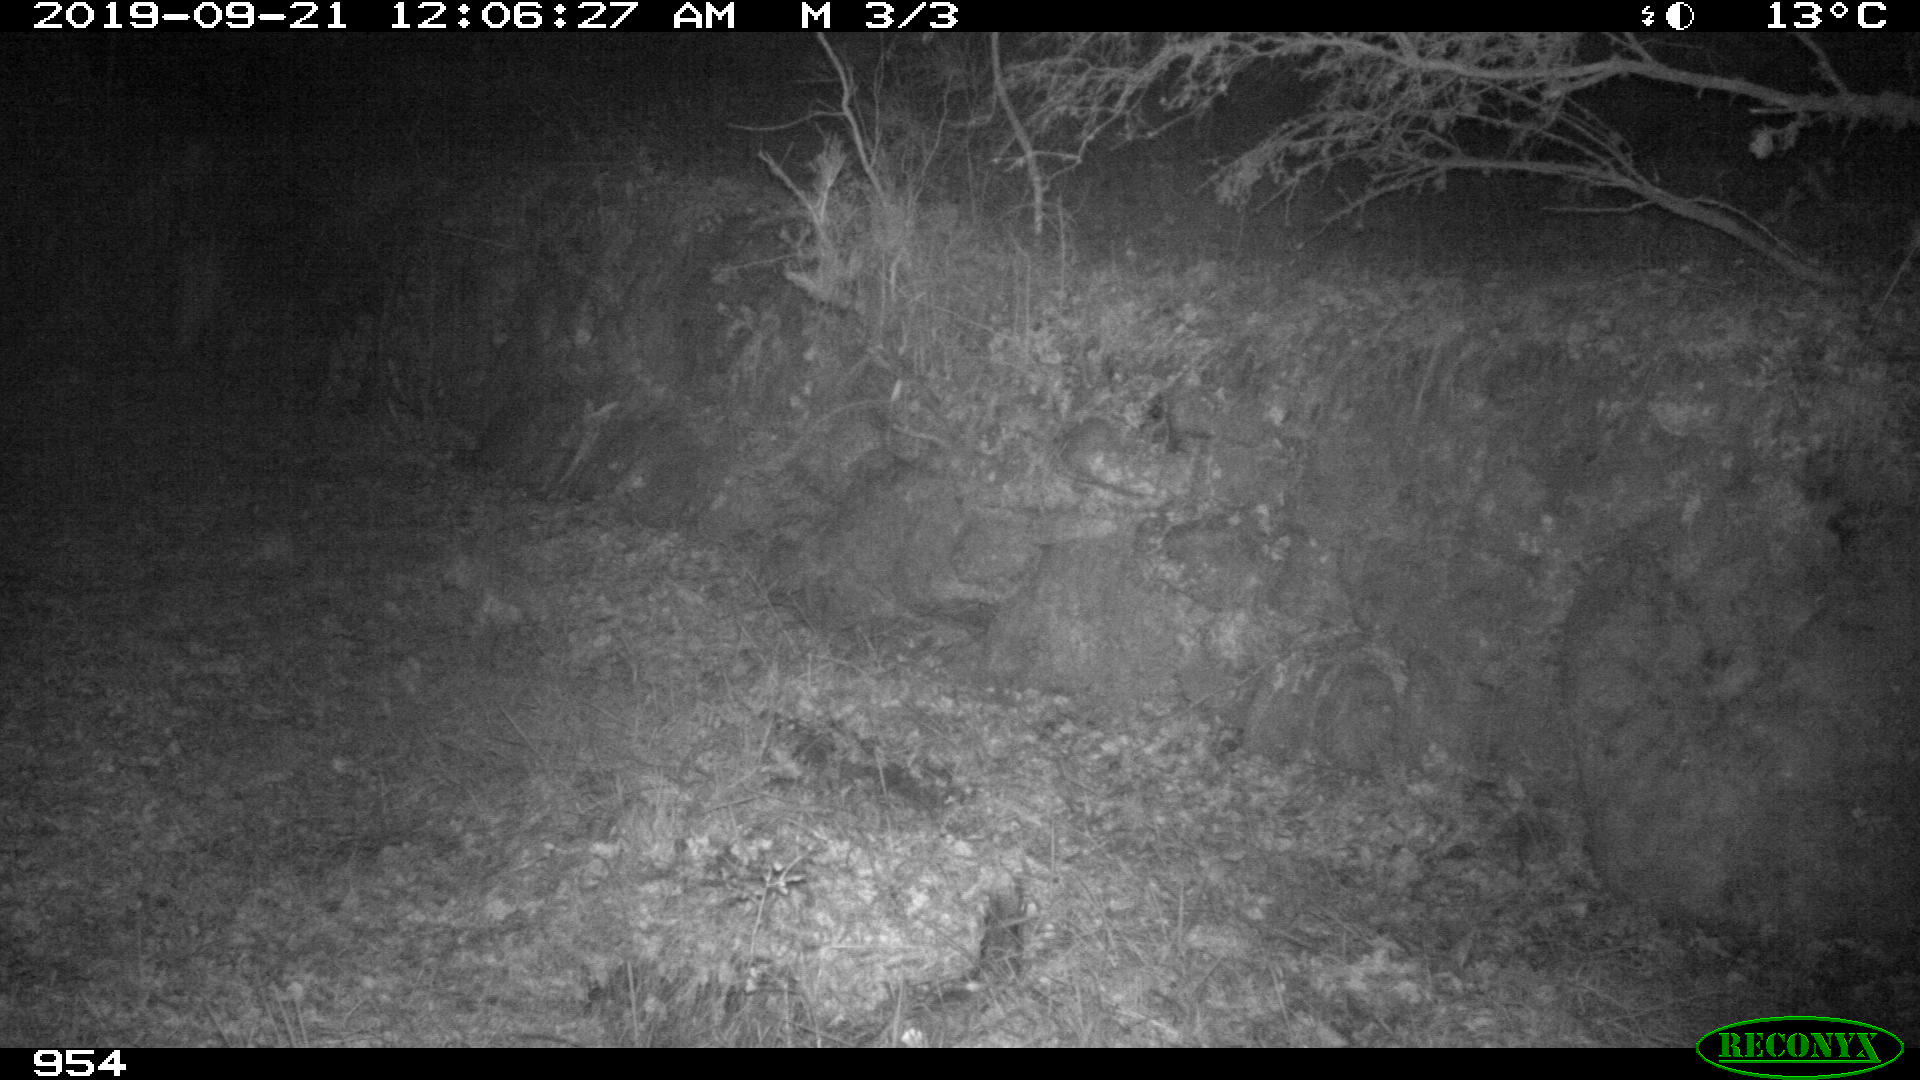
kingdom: Animalia
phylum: Chordata
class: Mammalia
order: Artiodactyla
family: Cervidae
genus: Capreolus
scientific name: Capreolus capreolus
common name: Western roe deer
